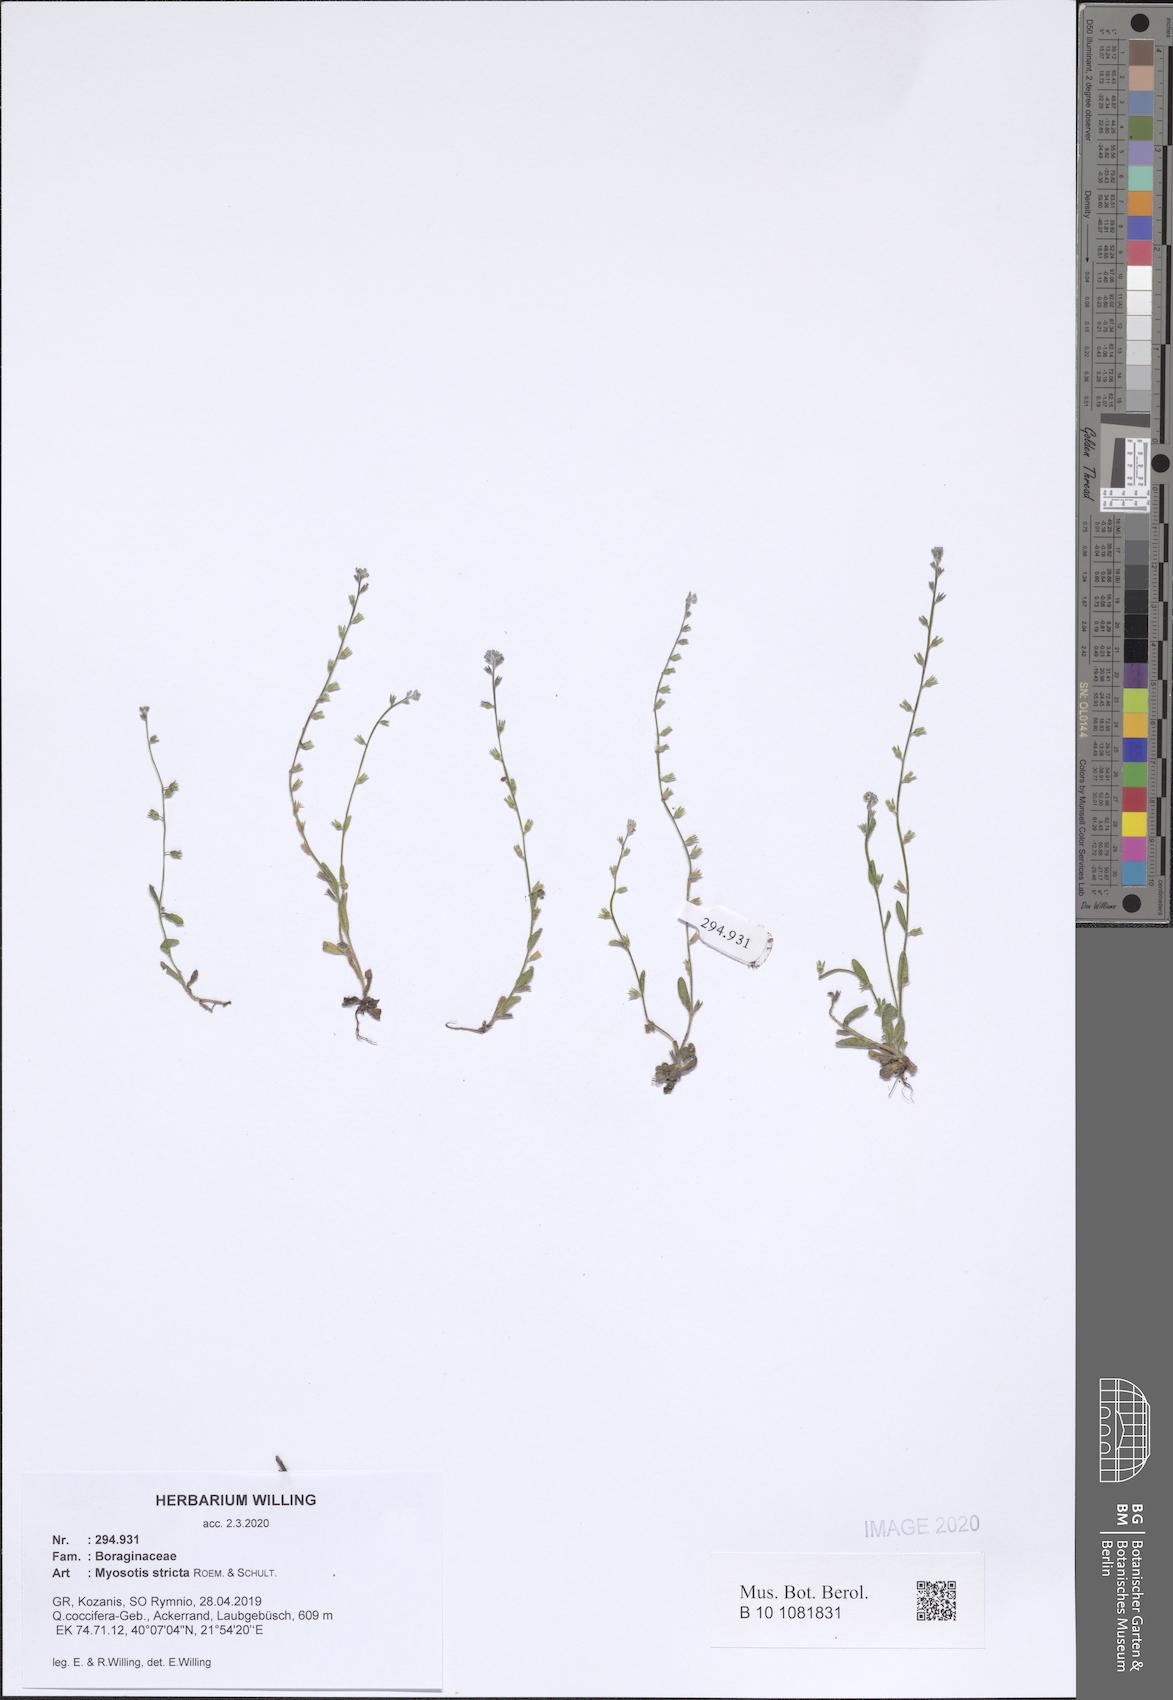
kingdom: Plantae
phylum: Tracheophyta
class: Magnoliopsida
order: Boraginales
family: Boraginaceae
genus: Myosotis
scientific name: Myosotis stricta
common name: Strict forget-me-not
